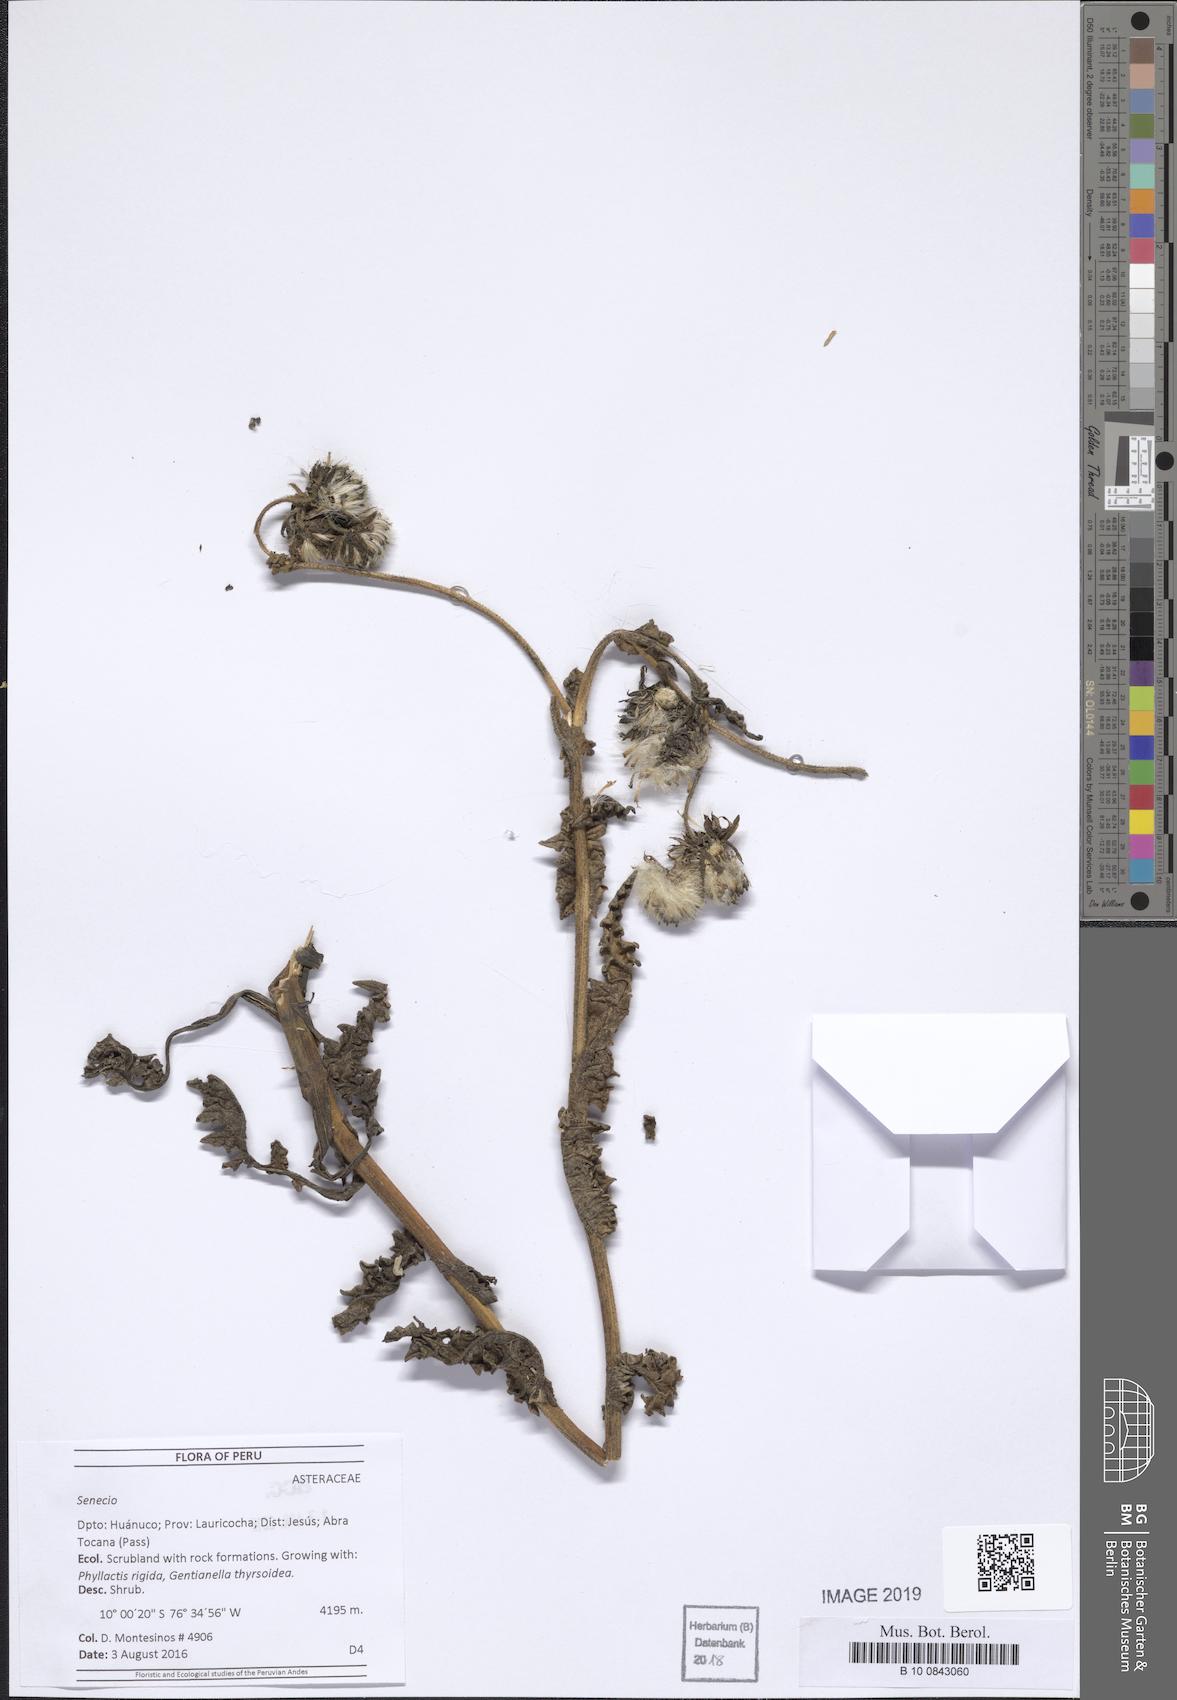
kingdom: Plantae
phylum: Tracheophyta
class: Magnoliopsida
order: Asterales
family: Asteraceae
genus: Senecio
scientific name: Senecio hyoseridifolius
